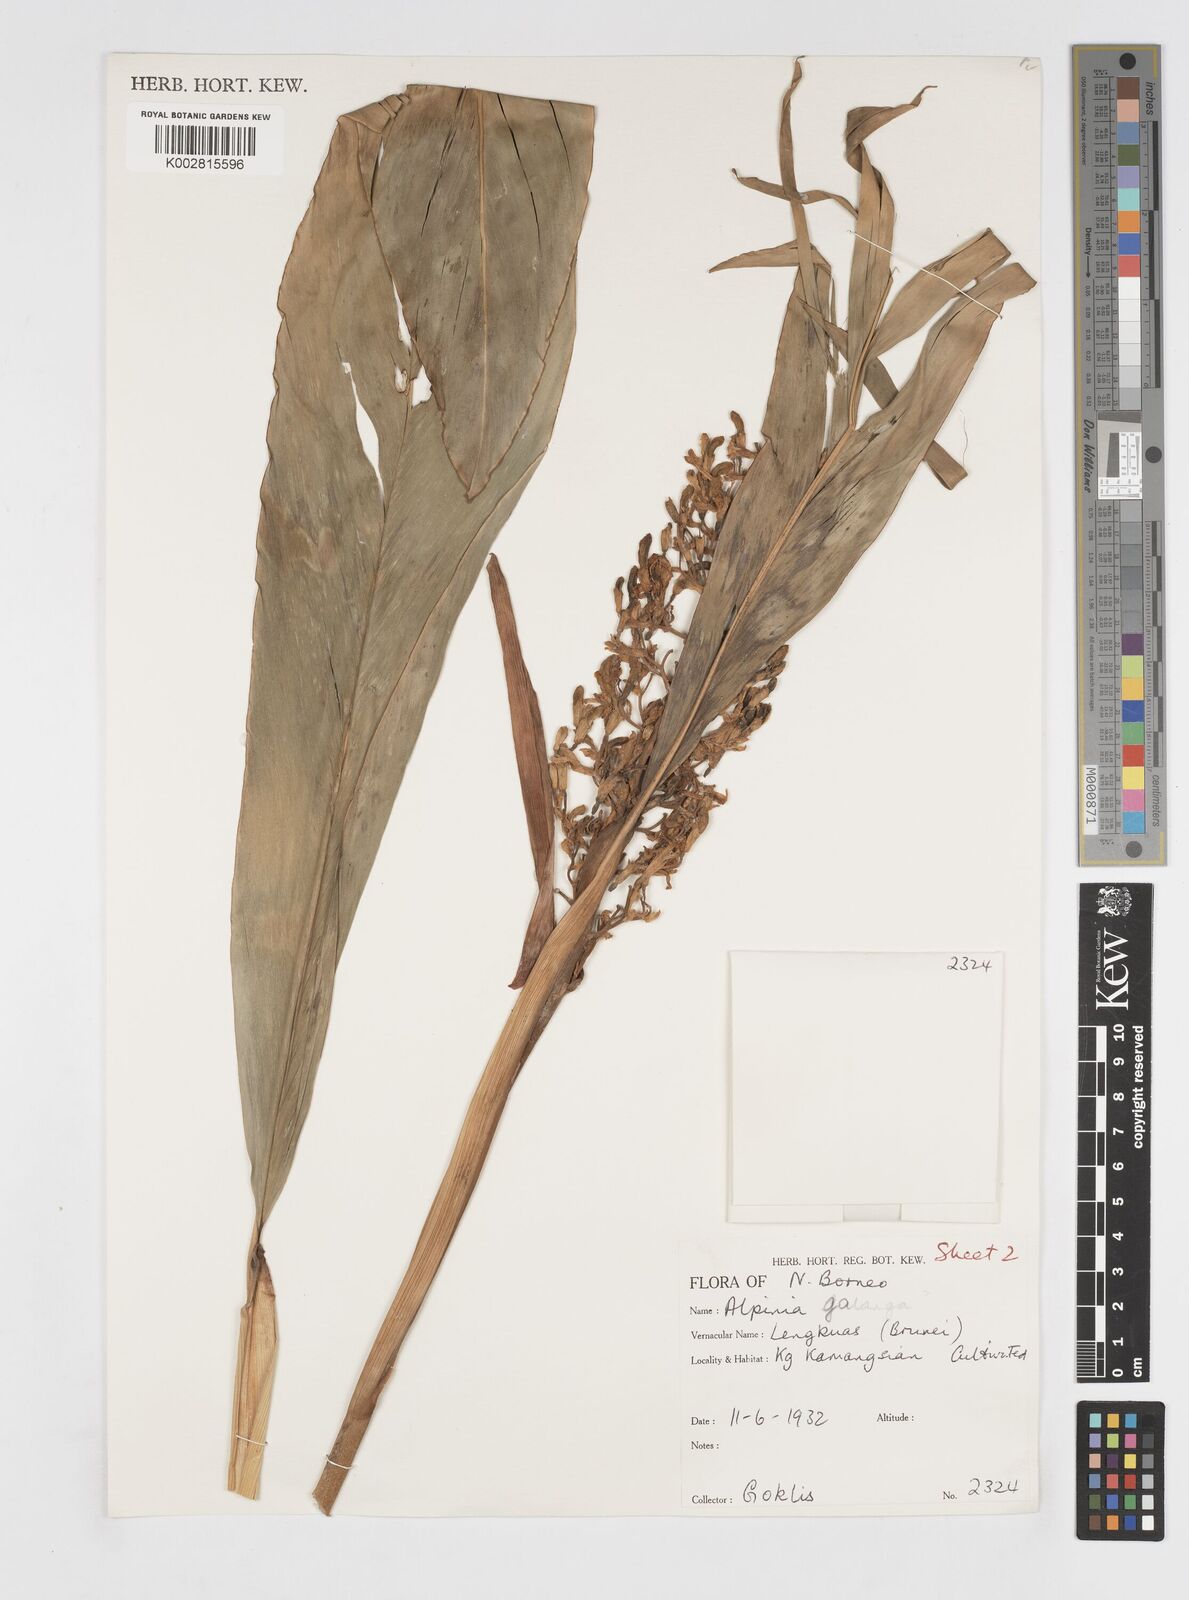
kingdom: Plantae
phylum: Tracheophyta
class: Liliopsida
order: Zingiberales
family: Zingiberaceae
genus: Alpinia
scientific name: Alpinia galanga
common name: Siamese-ginger
